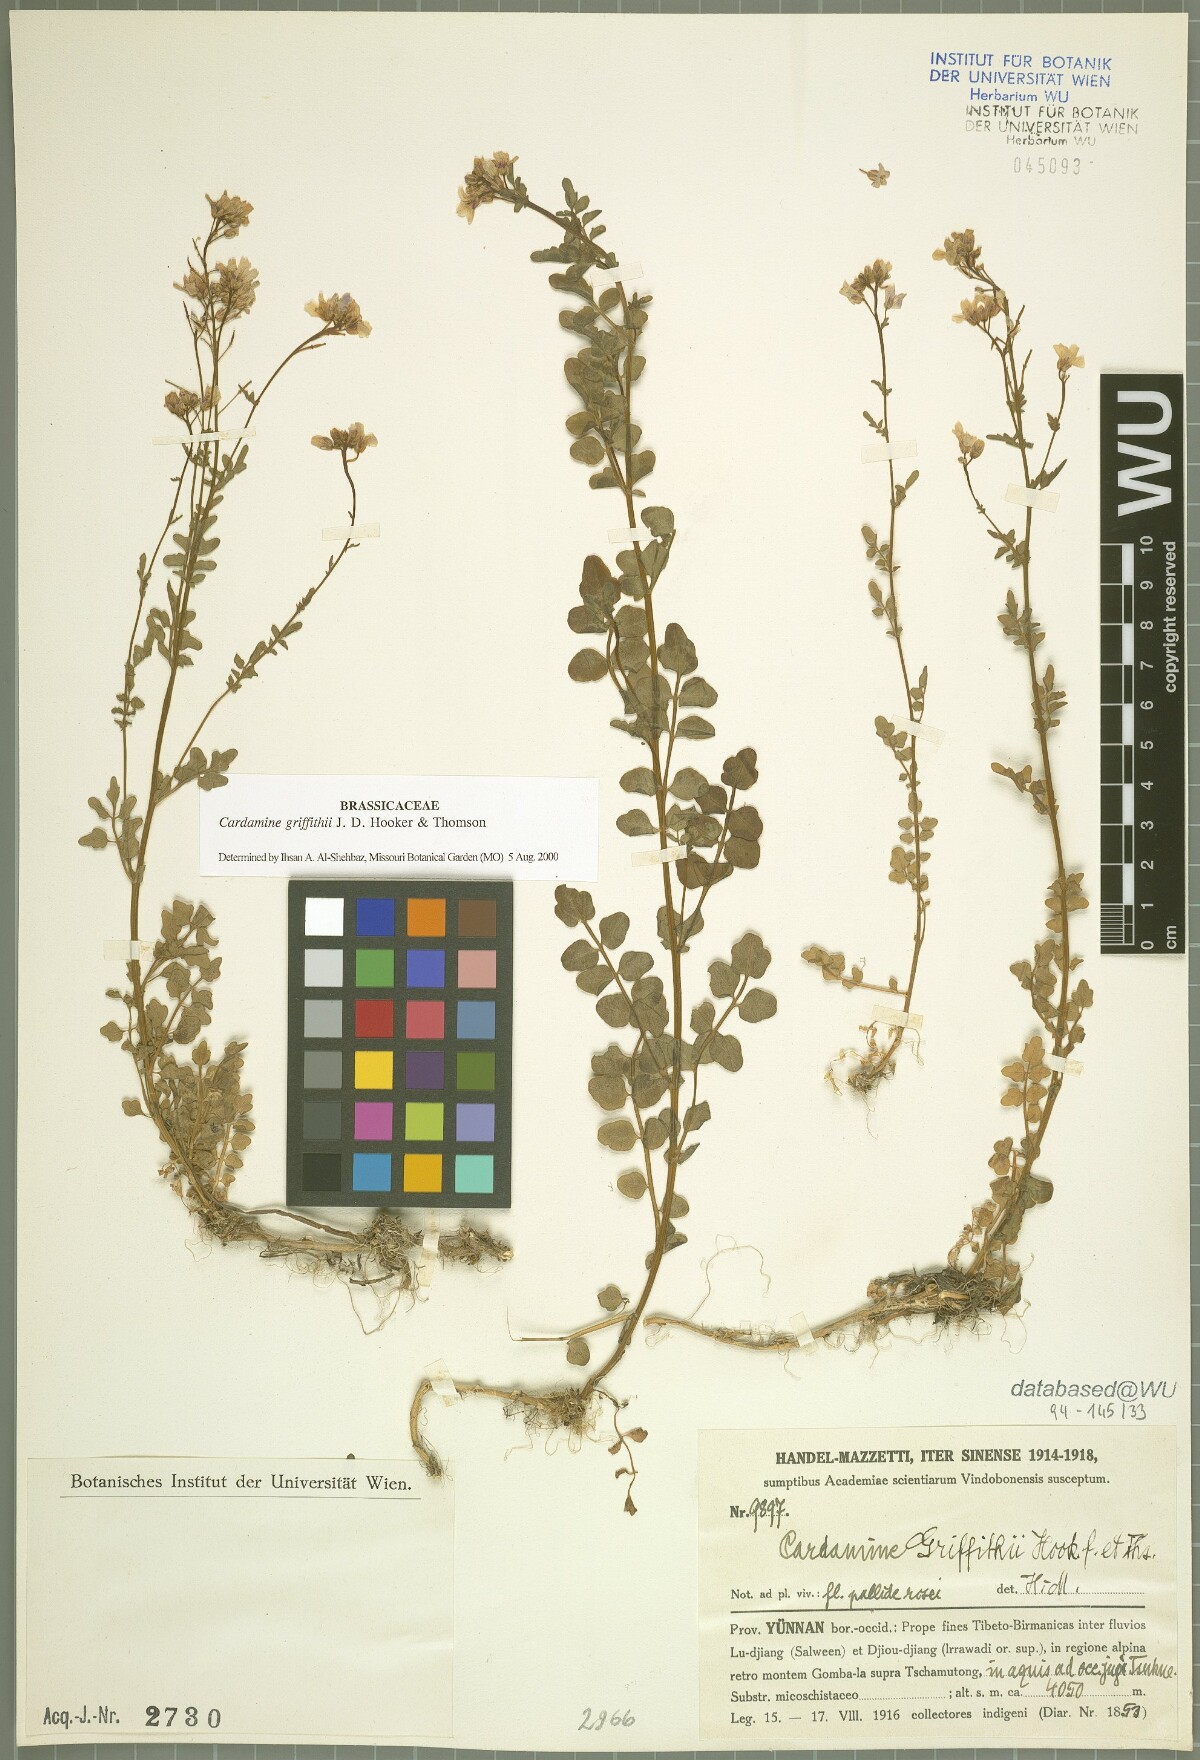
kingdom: Plantae
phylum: Tracheophyta
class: Magnoliopsida
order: Brassicales
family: Brassicaceae
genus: Cardamine
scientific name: Cardamine griffithii
